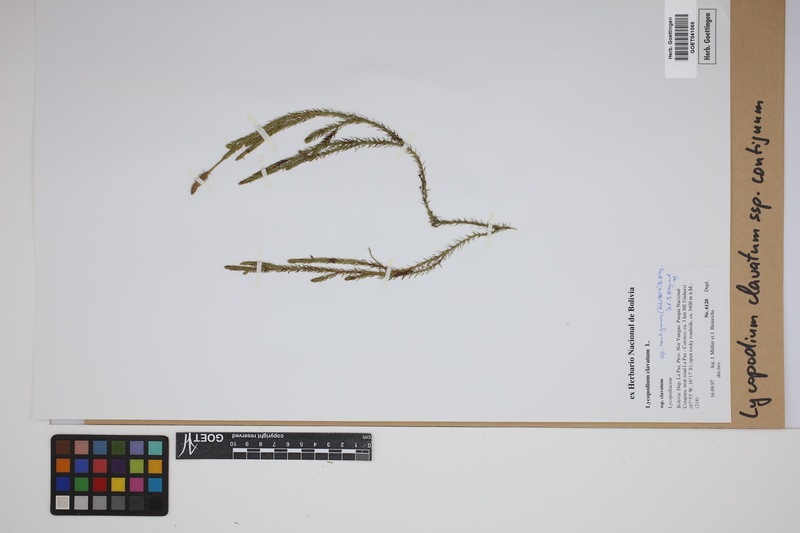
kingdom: Plantae
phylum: Tracheophyta
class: Lycopodiopsida
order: Lycopodiales
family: Lycopodiaceae
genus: Lycopodium
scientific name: Lycopodium clavatum
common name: Stag's-horn clubmoss
